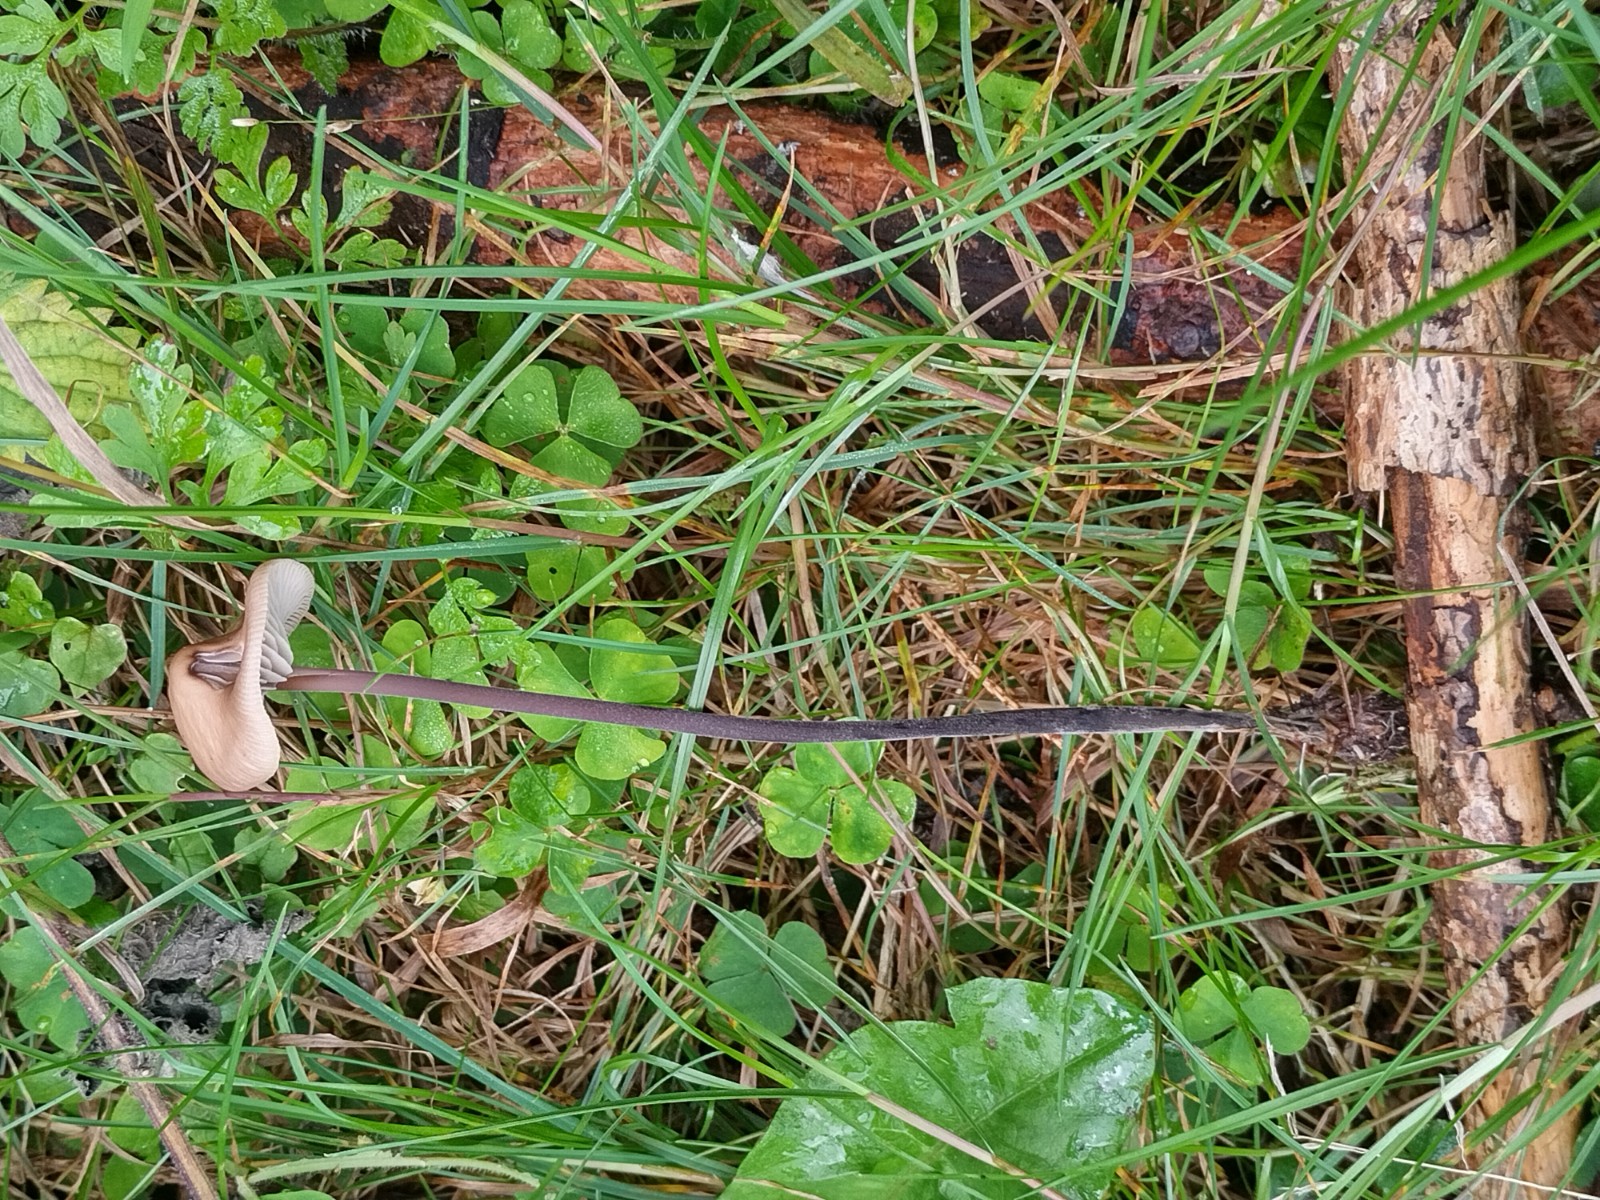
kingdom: Fungi
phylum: Basidiomycota
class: Agaricomycetes
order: Agaricales
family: Omphalotaceae
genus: Mycetinis
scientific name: Mycetinis alliaceus
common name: stor løghat
